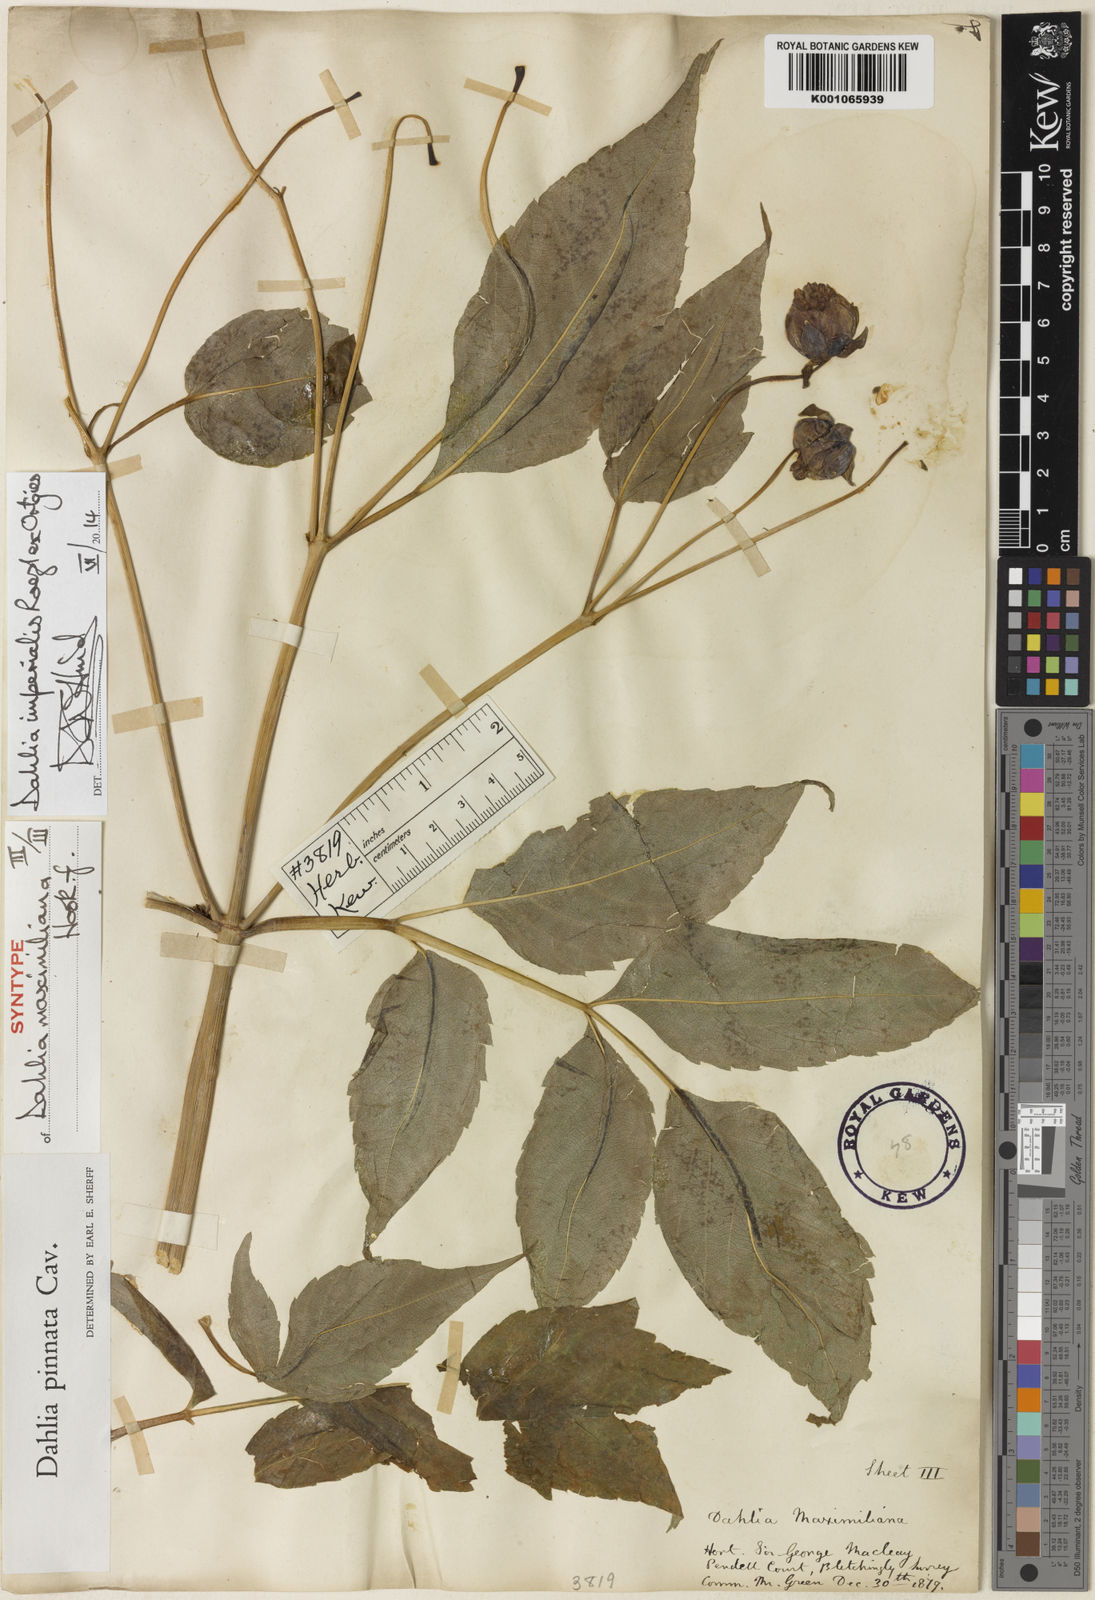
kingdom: Plantae
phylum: Tracheophyta
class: Magnoliopsida
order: Asterales
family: Asteraceae
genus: Dahlia
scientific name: Dahlia pinnata
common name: Dahlia
